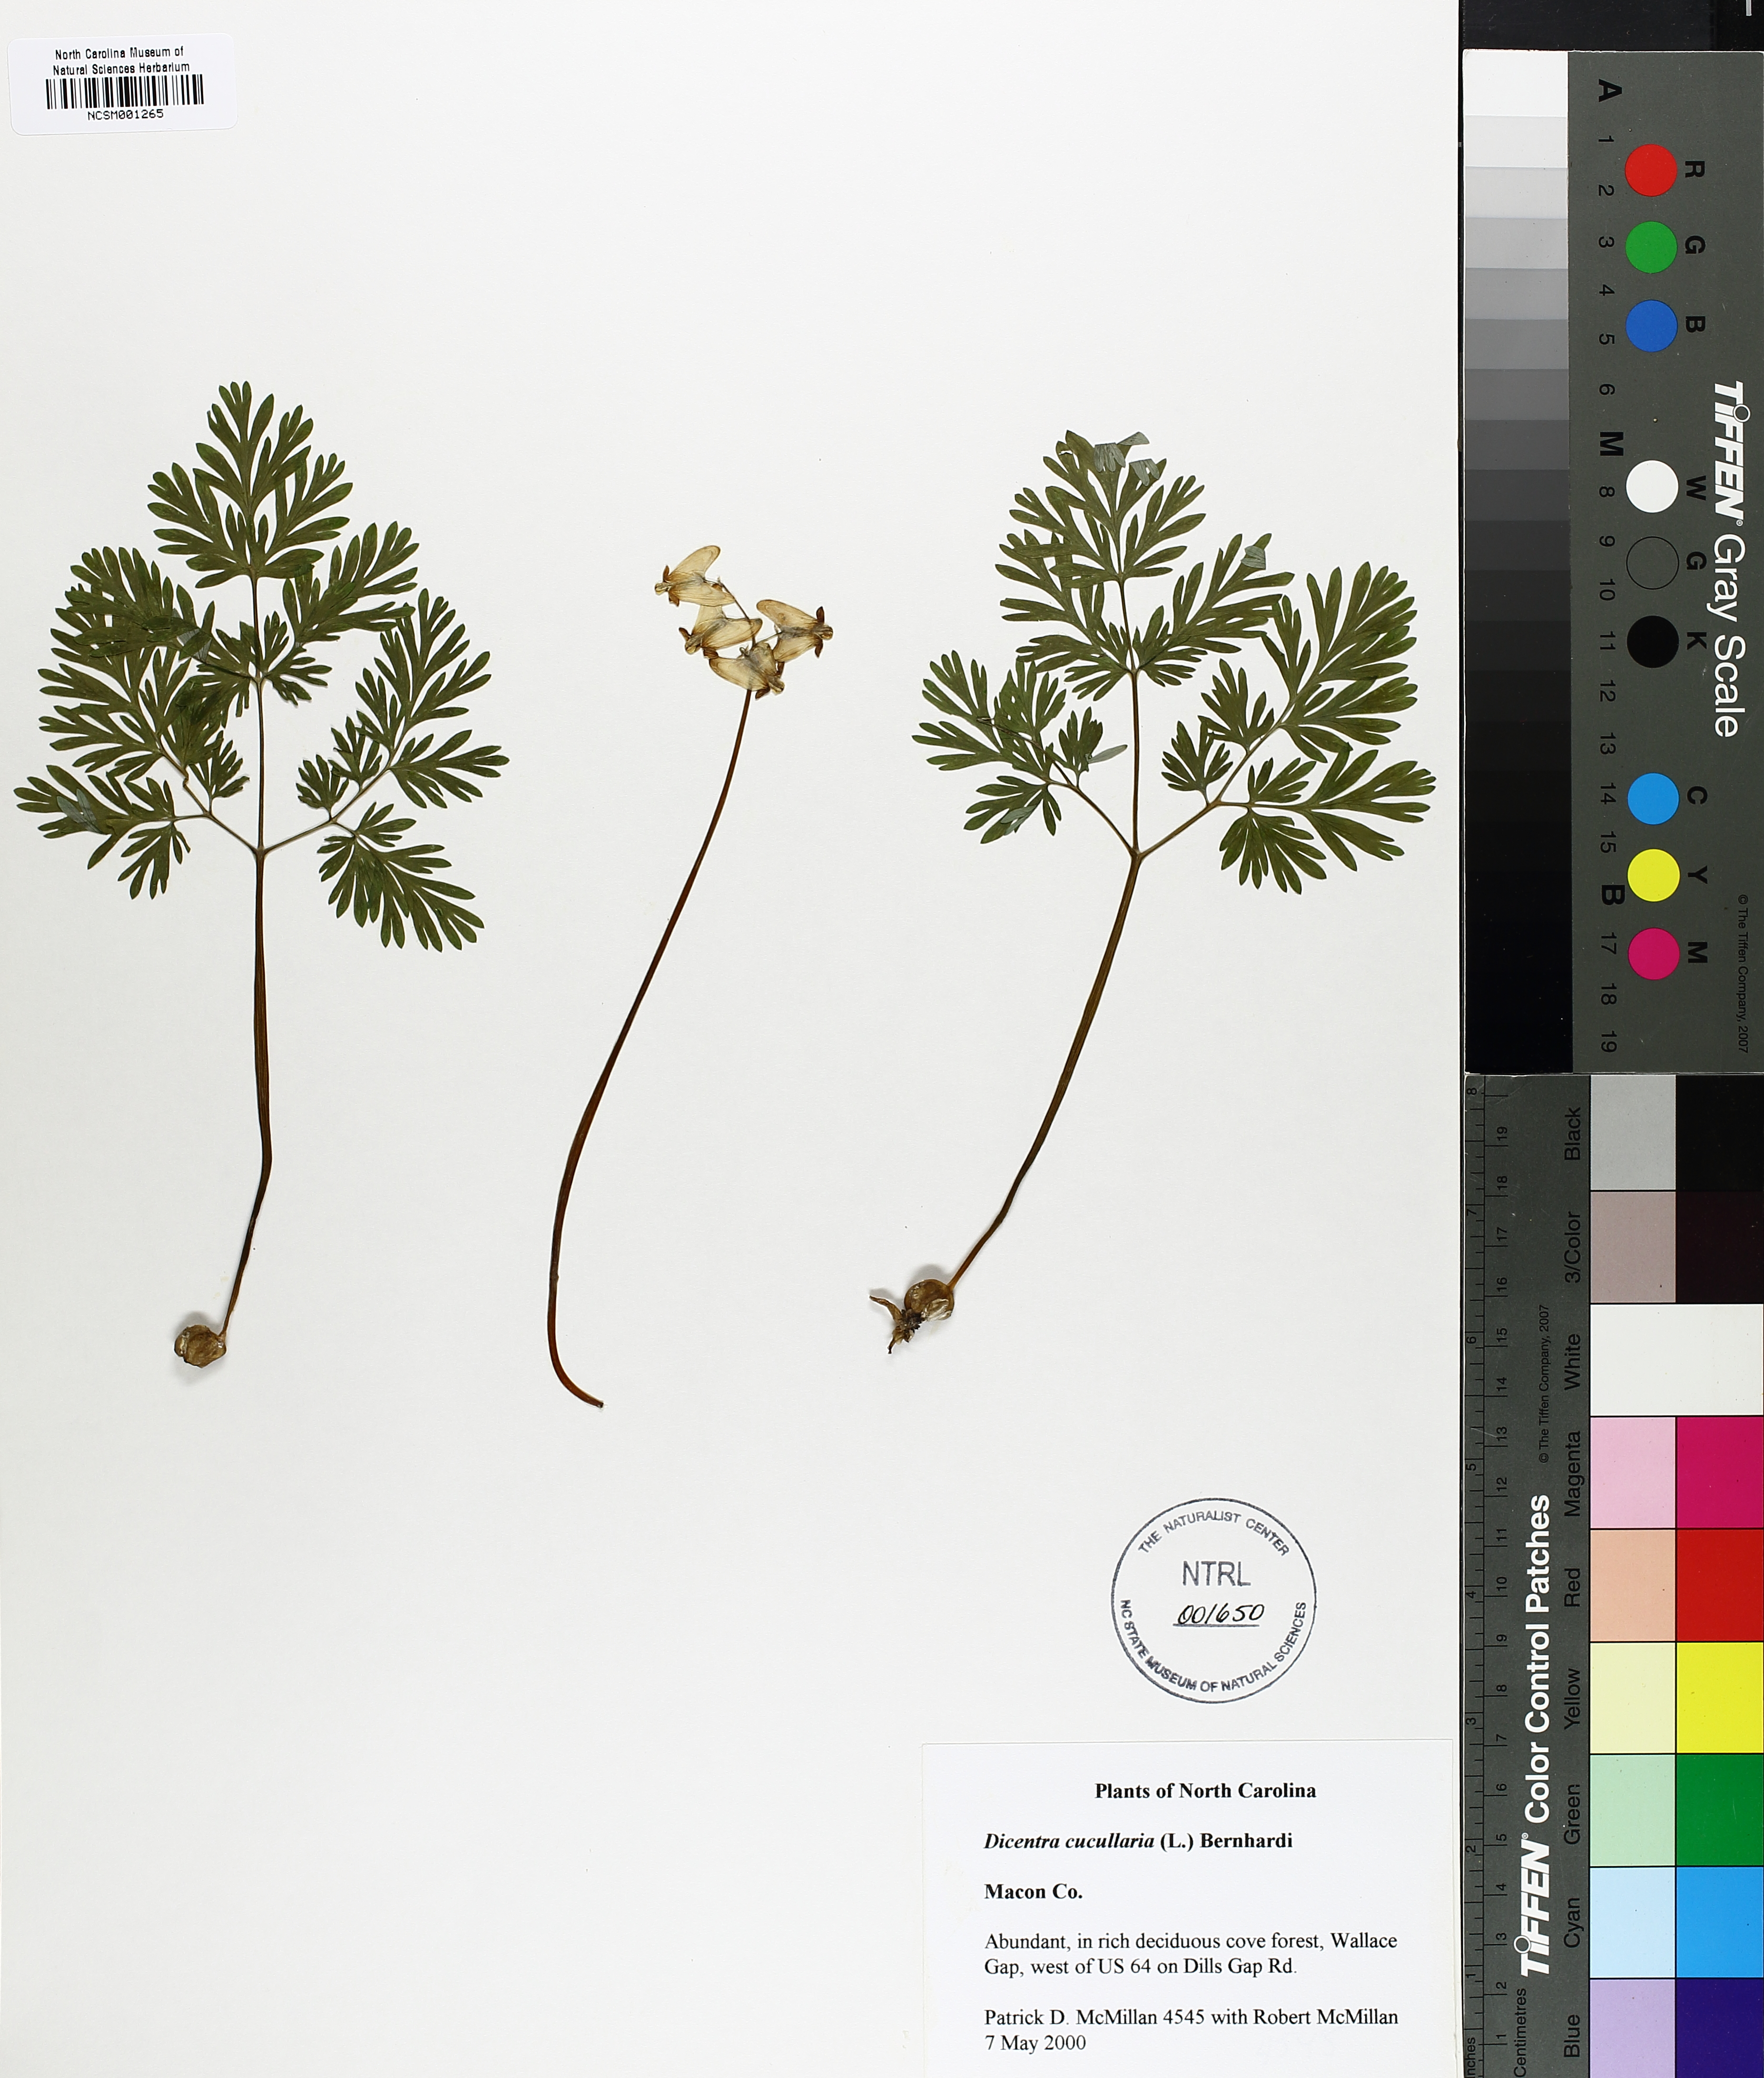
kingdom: Plantae
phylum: Tracheophyta
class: Magnoliopsida
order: Ranunculales
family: Papaveraceae
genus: Dicentra
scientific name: Dicentra cucullaria
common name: Dutchman's breeches
